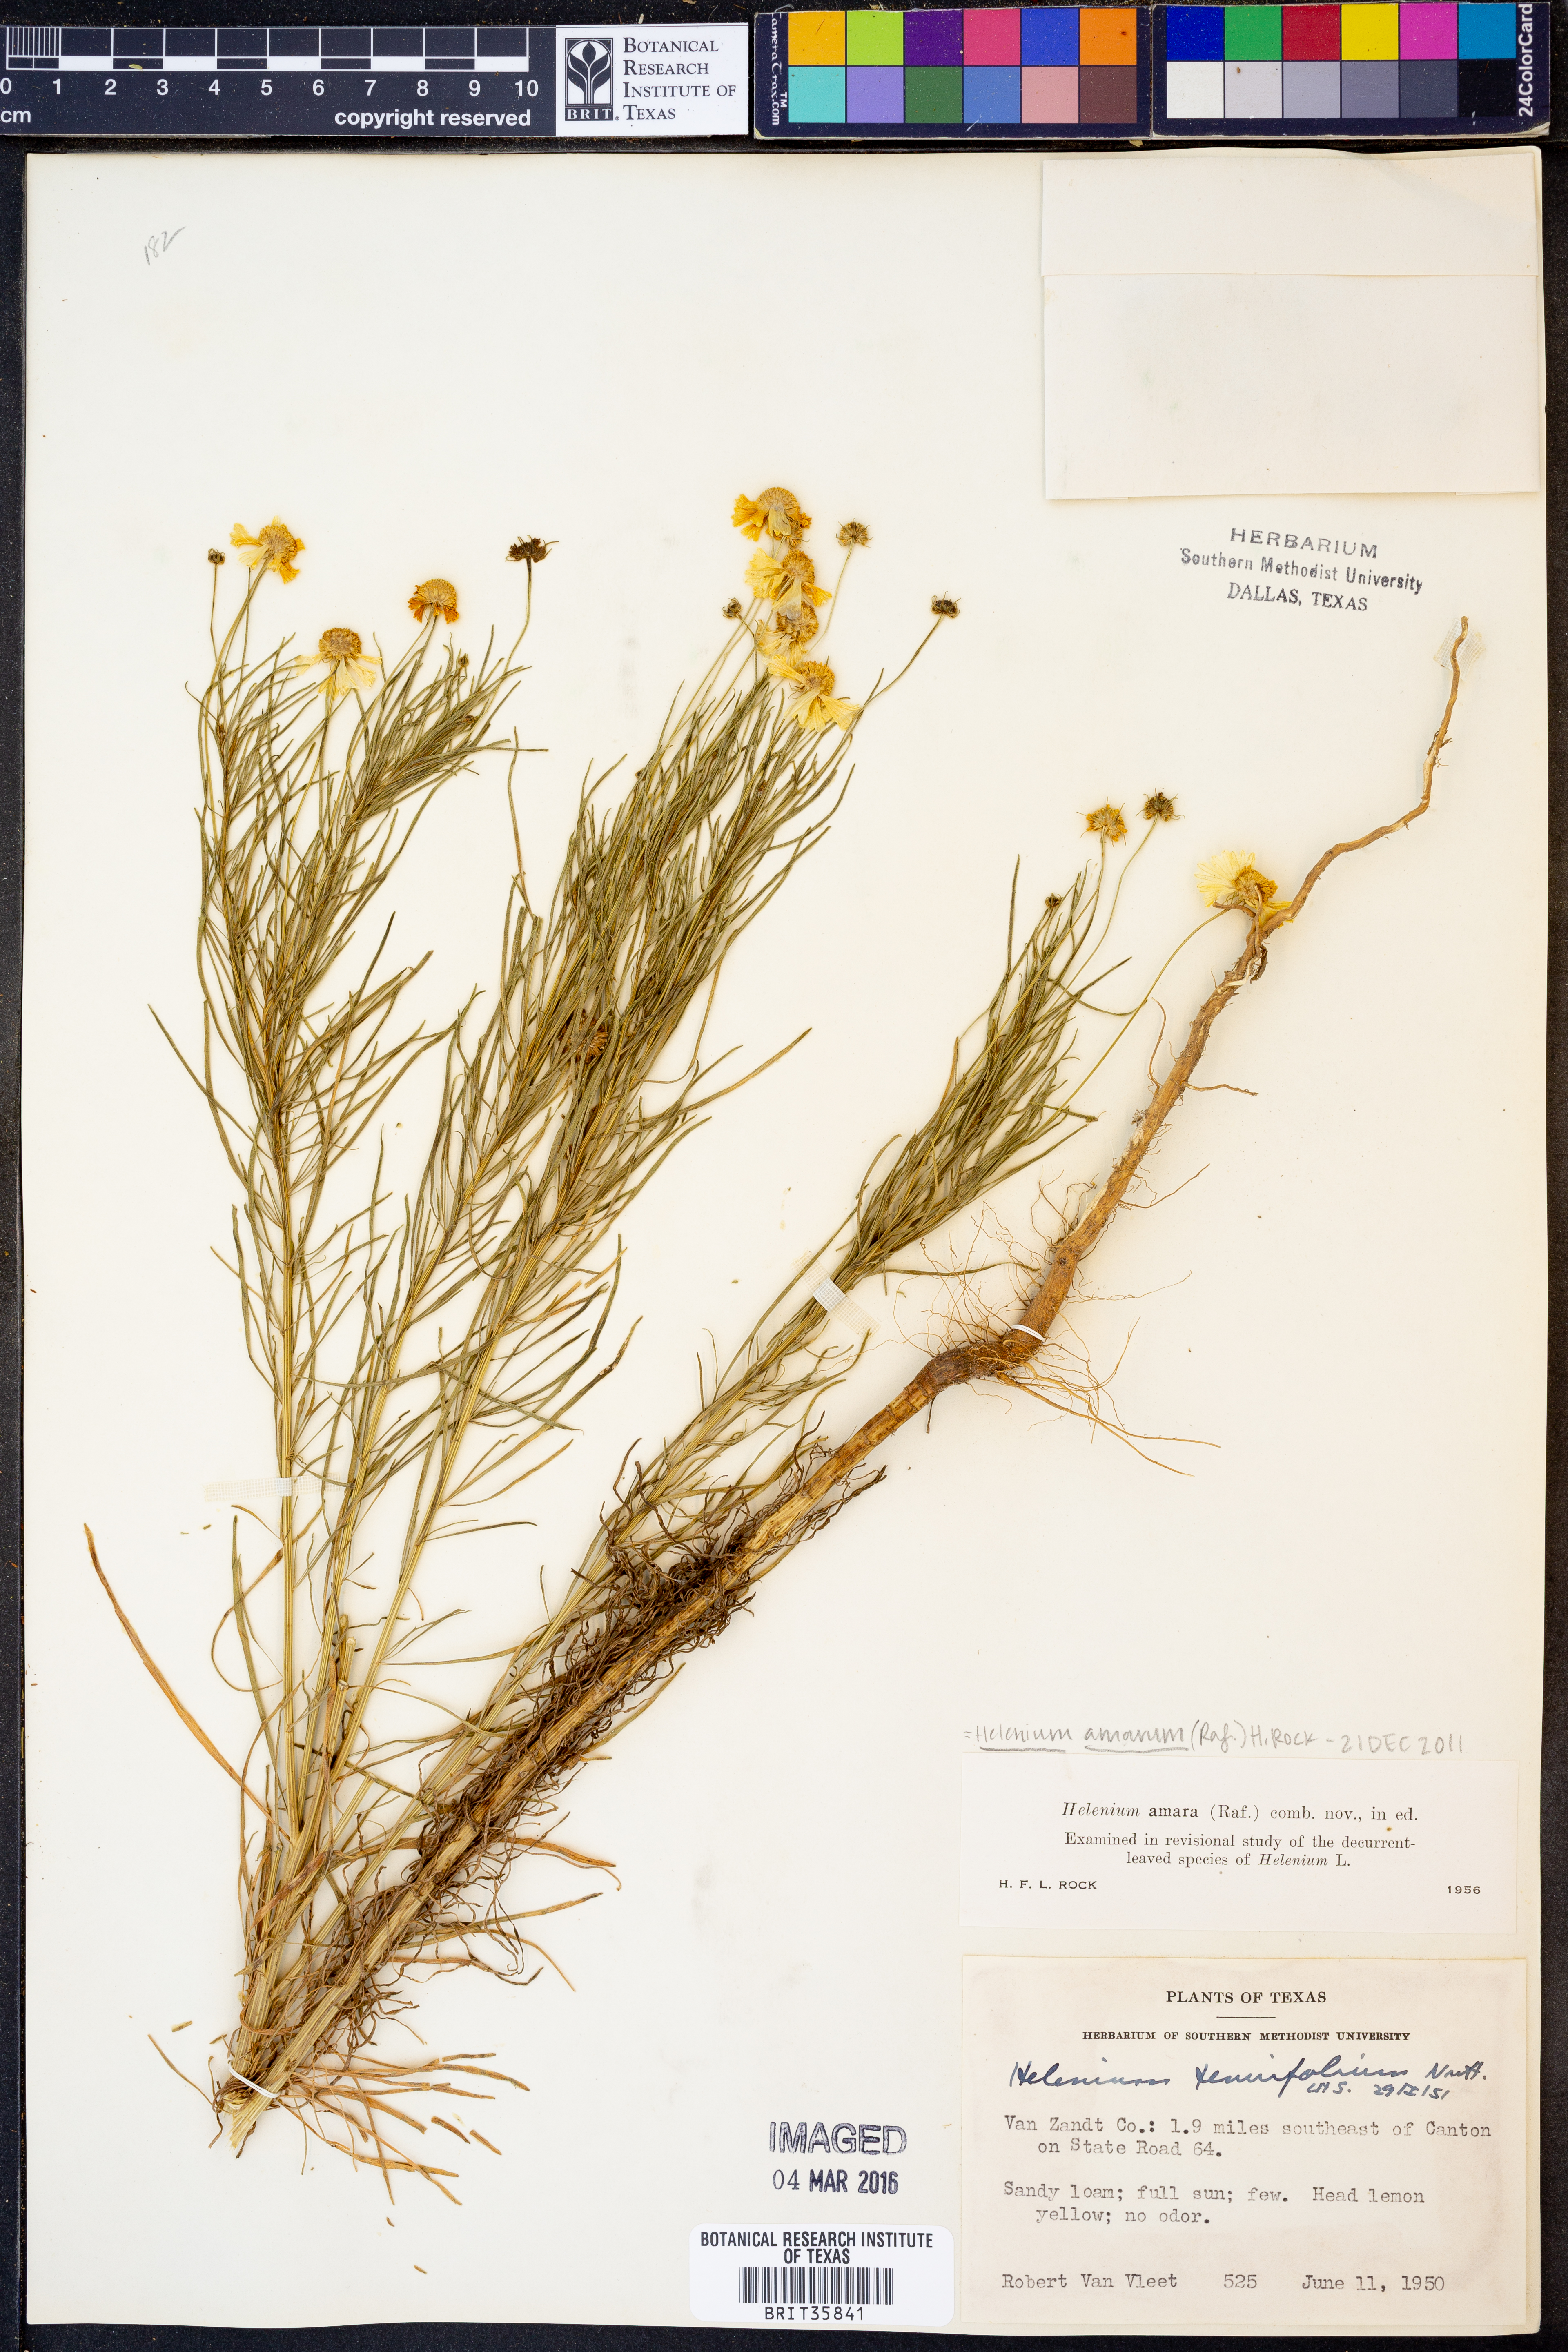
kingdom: Plantae
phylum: Tracheophyta
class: Magnoliopsida
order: Asterales
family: Asteraceae
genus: Helenium
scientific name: Helenium amarum
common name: Bitter sneezeweed
